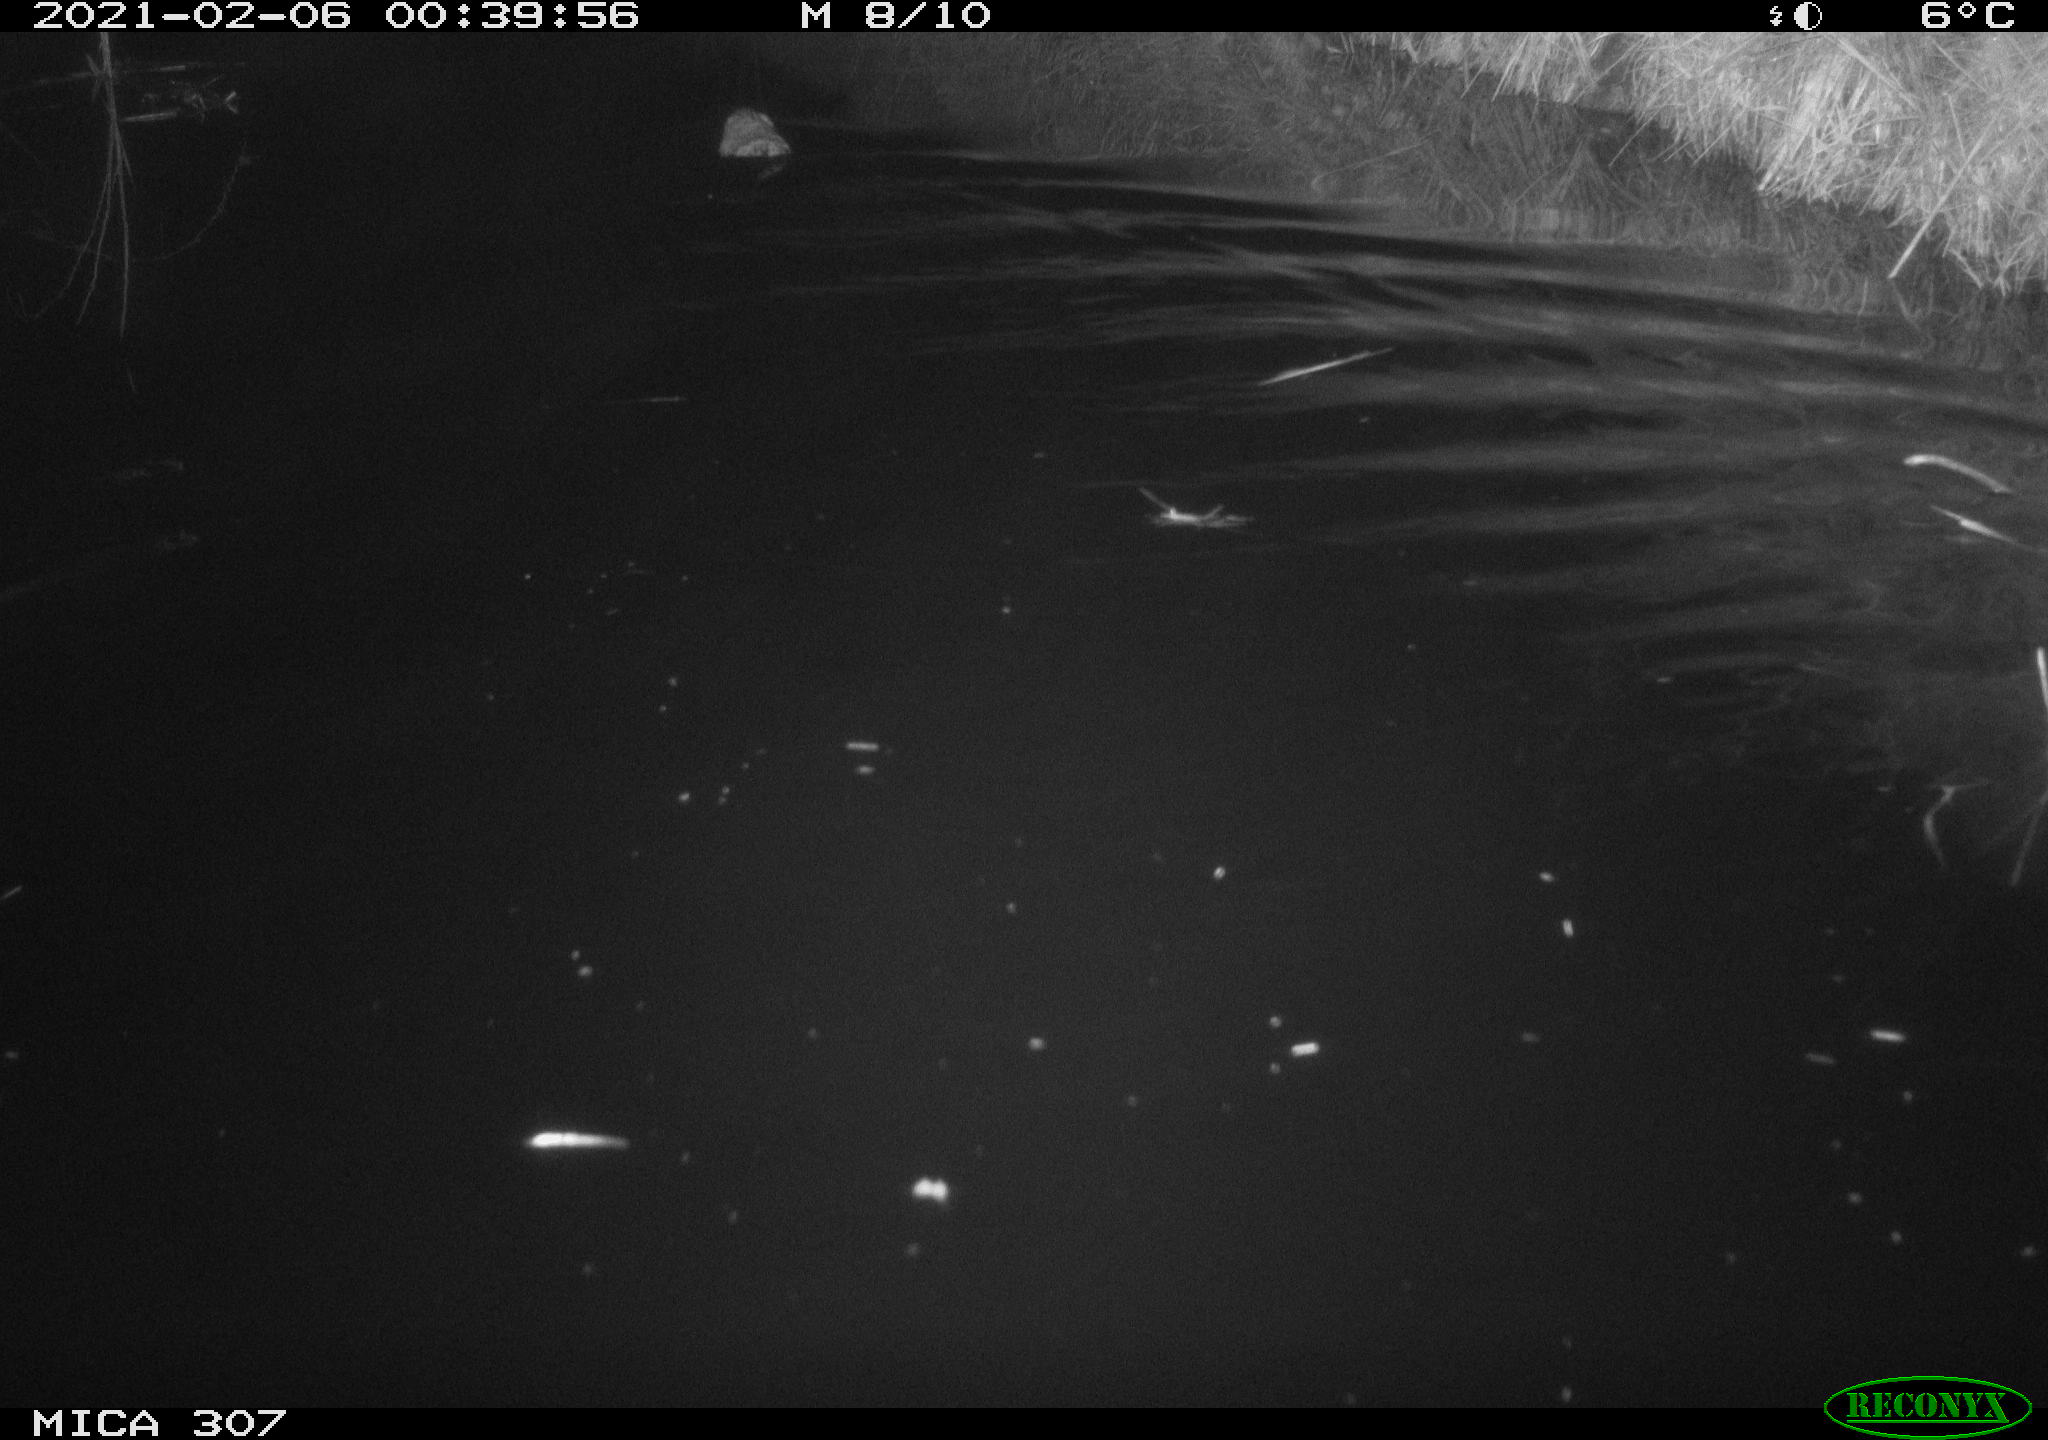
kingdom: Animalia
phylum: Chordata
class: Mammalia
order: Rodentia
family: Cricetidae
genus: Ondatra
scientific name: Ondatra zibethicus
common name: Muskrat
